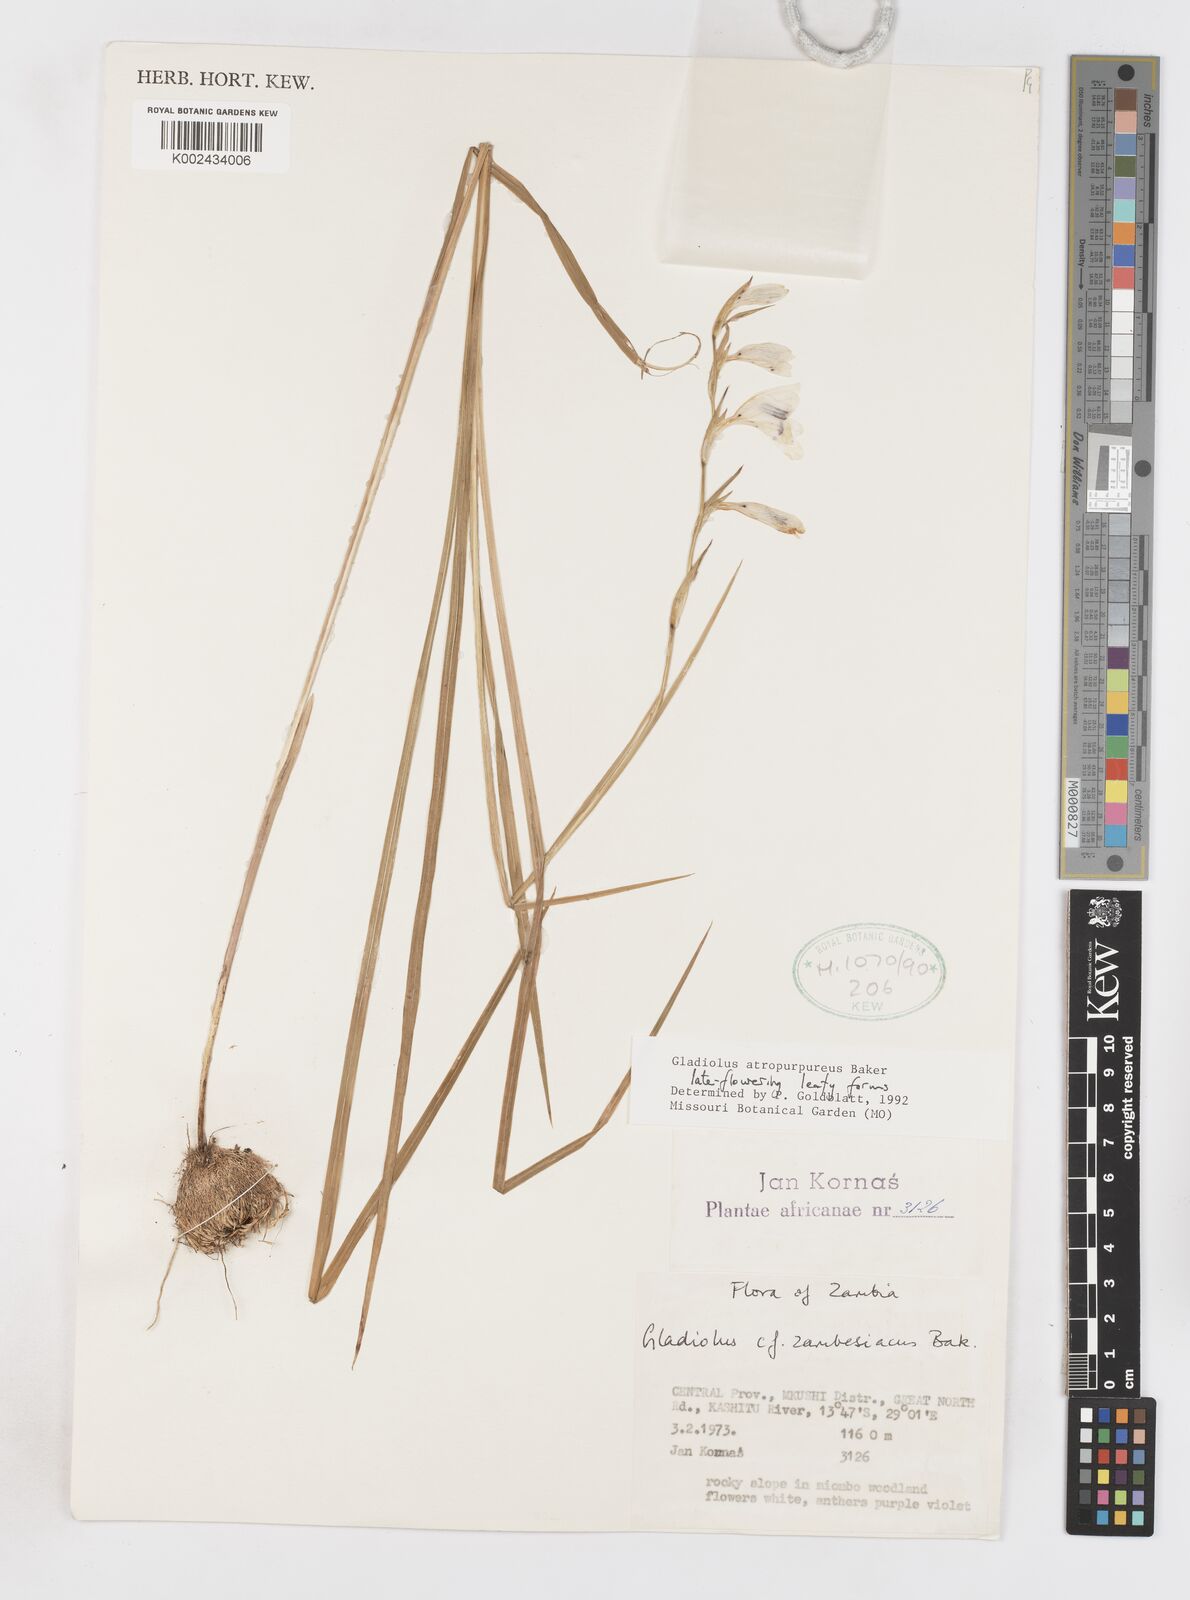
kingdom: Plantae
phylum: Tracheophyta
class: Liliopsida
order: Asparagales
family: Iridaceae
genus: Gladiolus
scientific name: Gladiolus atropurpureus
